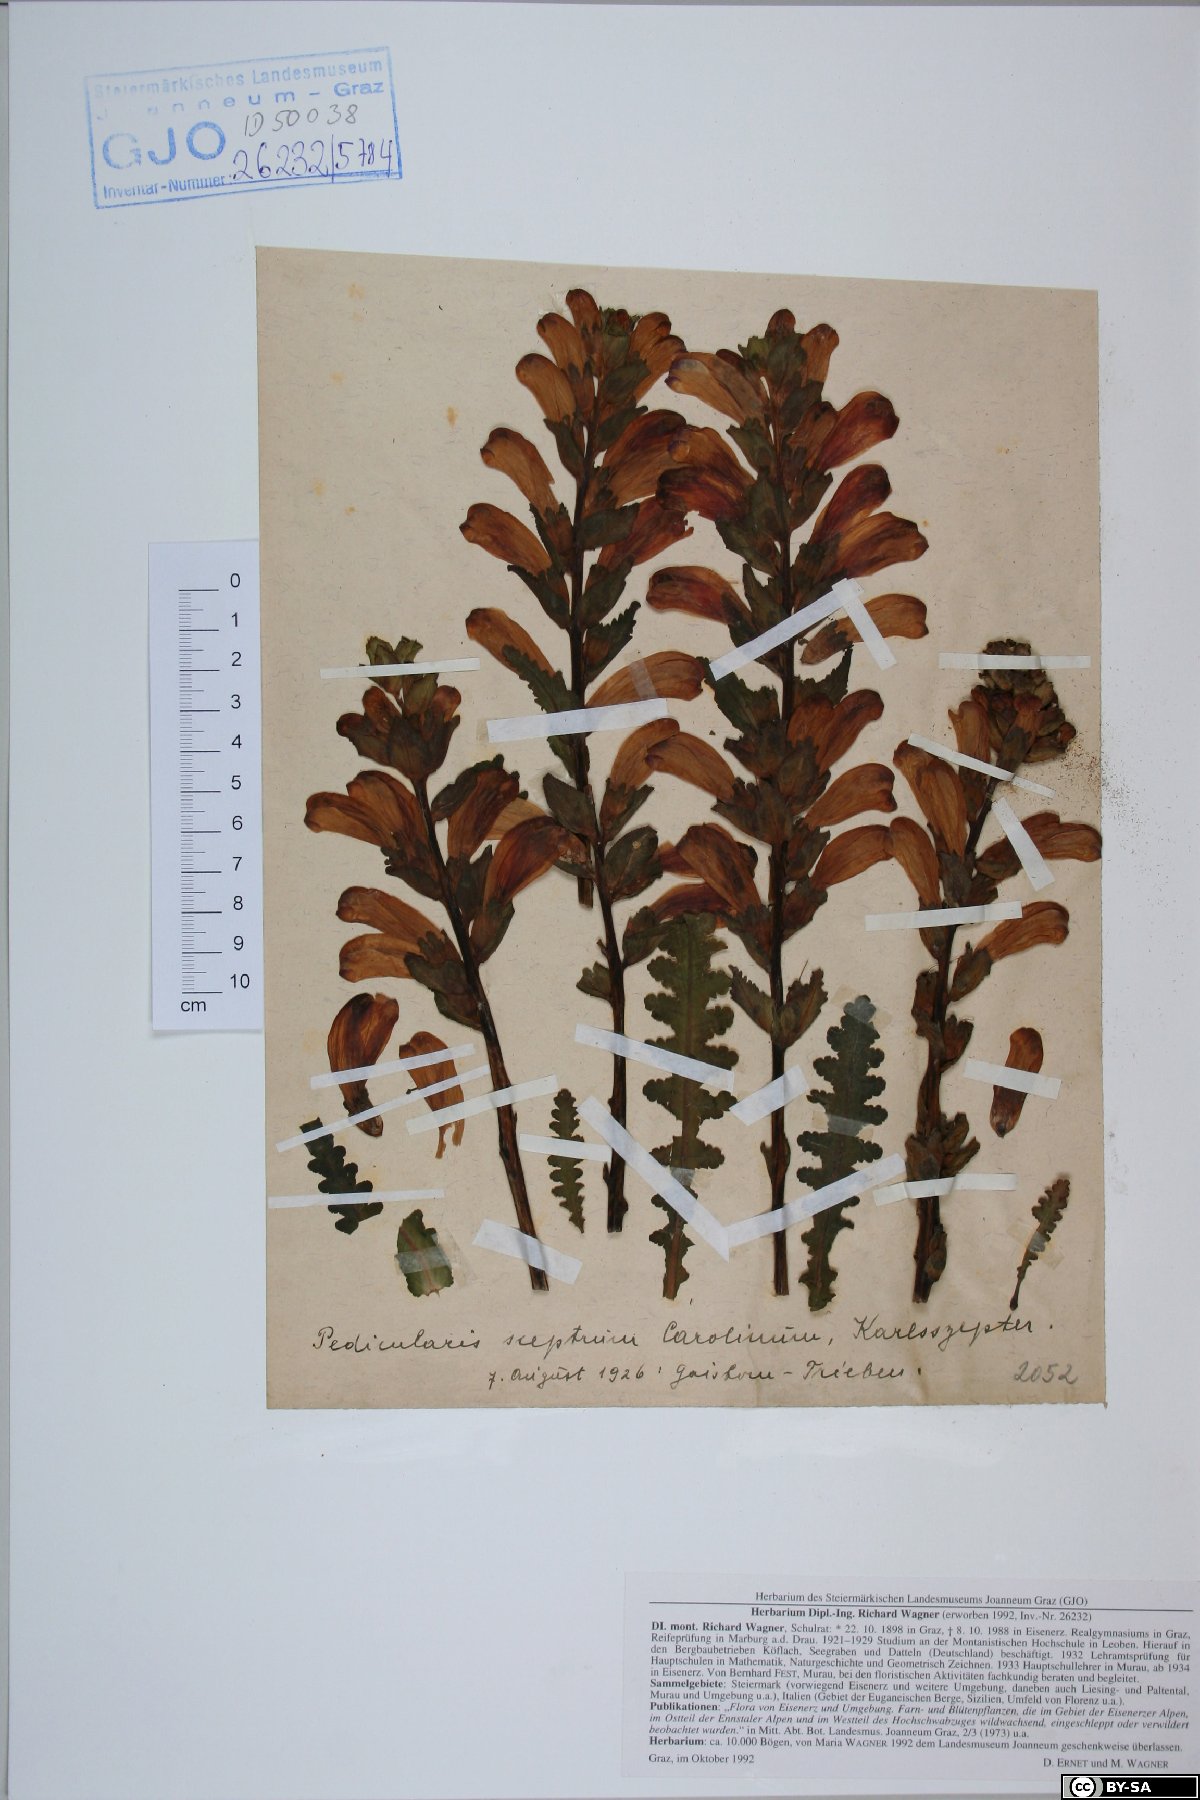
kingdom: Plantae
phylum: Tracheophyta
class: Magnoliopsida
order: Lamiales
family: Orobanchaceae
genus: Pedicularis
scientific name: Pedicularis sceptrum-carolinum
